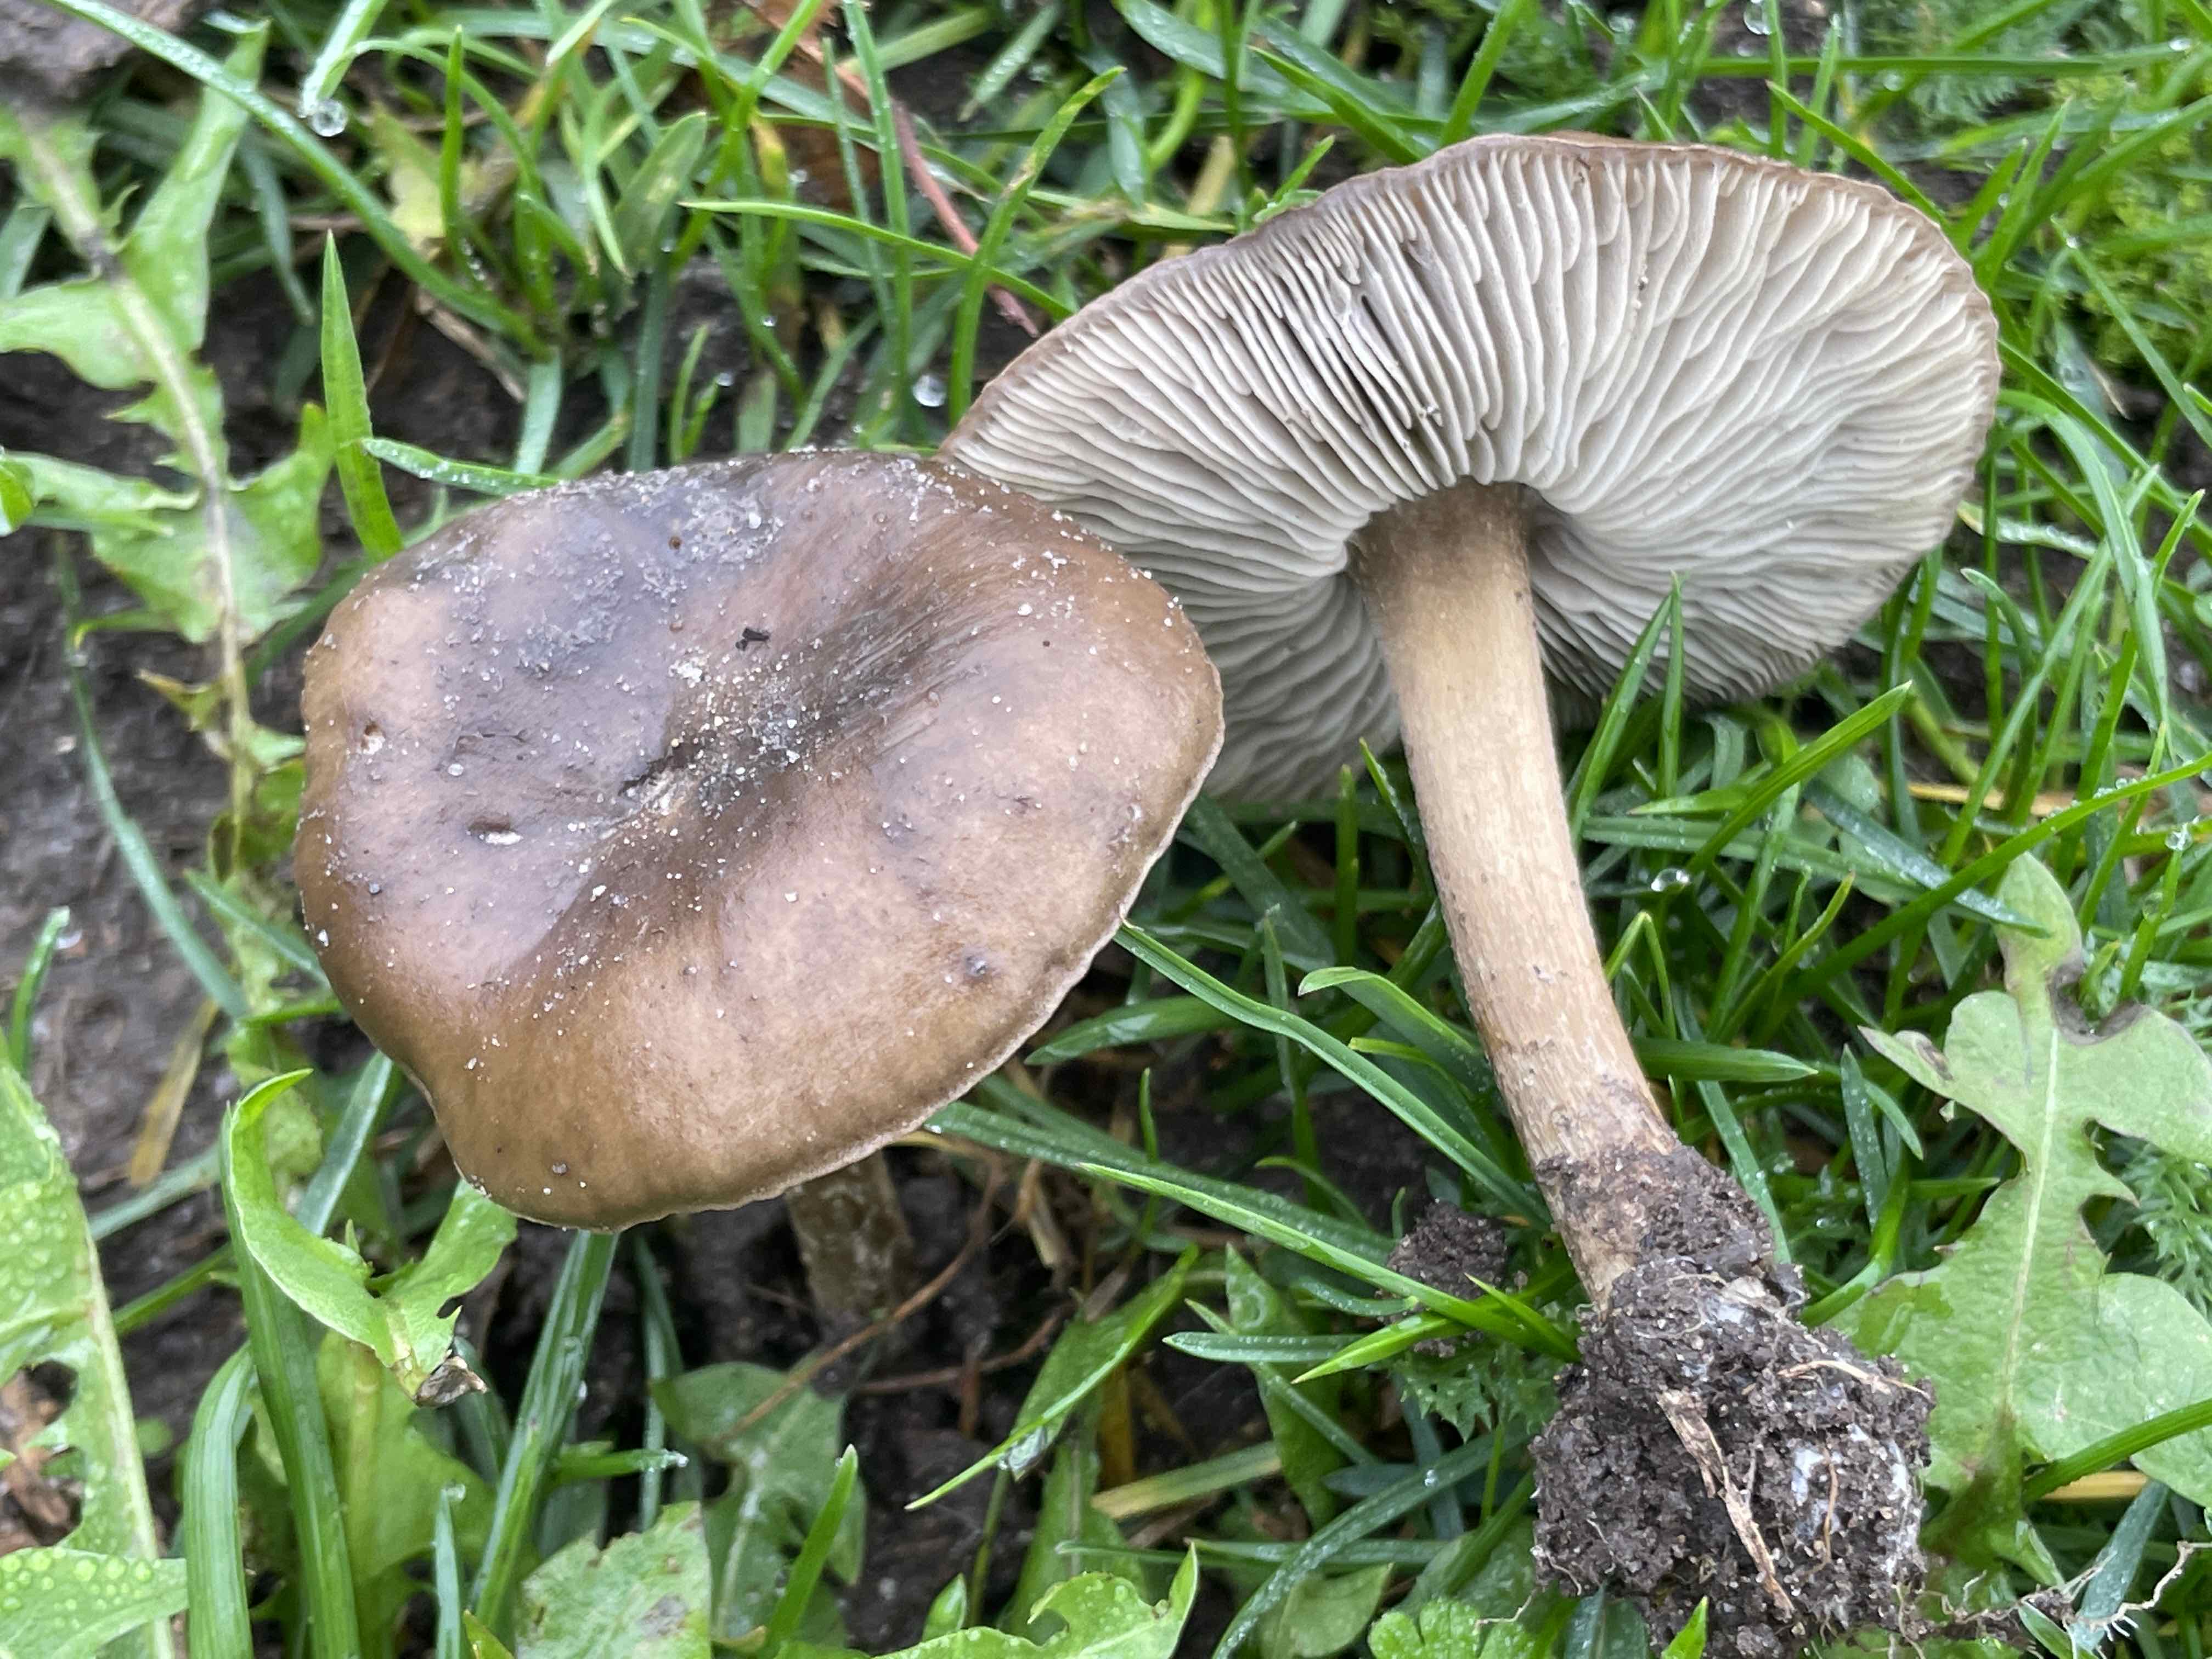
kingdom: Fungi
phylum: Basidiomycota
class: Agaricomycetes
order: Agaricales
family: Tricholomataceae
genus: Melanoleuca
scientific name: Melanoleuca
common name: munkehat
